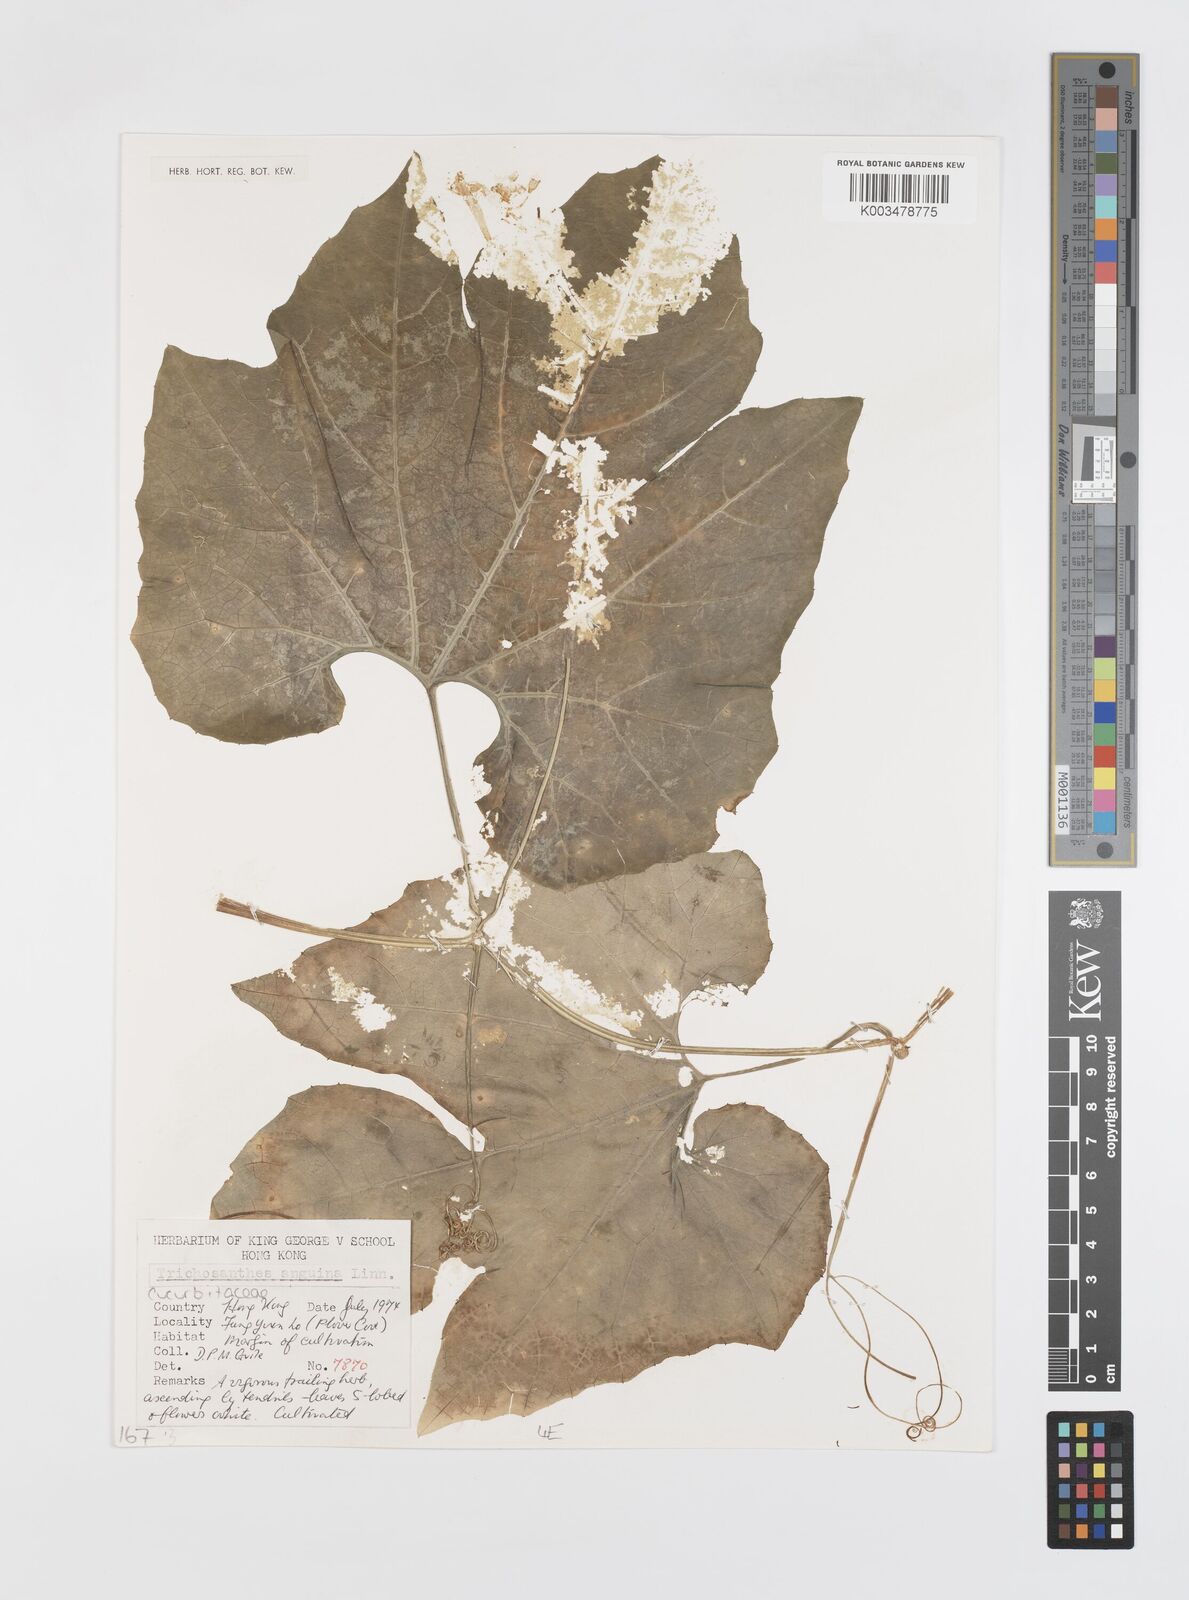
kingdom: Plantae
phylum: Tracheophyta
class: Magnoliopsida
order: Cucurbitales
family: Cucurbitaceae
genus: Trichosanthes
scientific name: Trichosanthes cucumeroides
